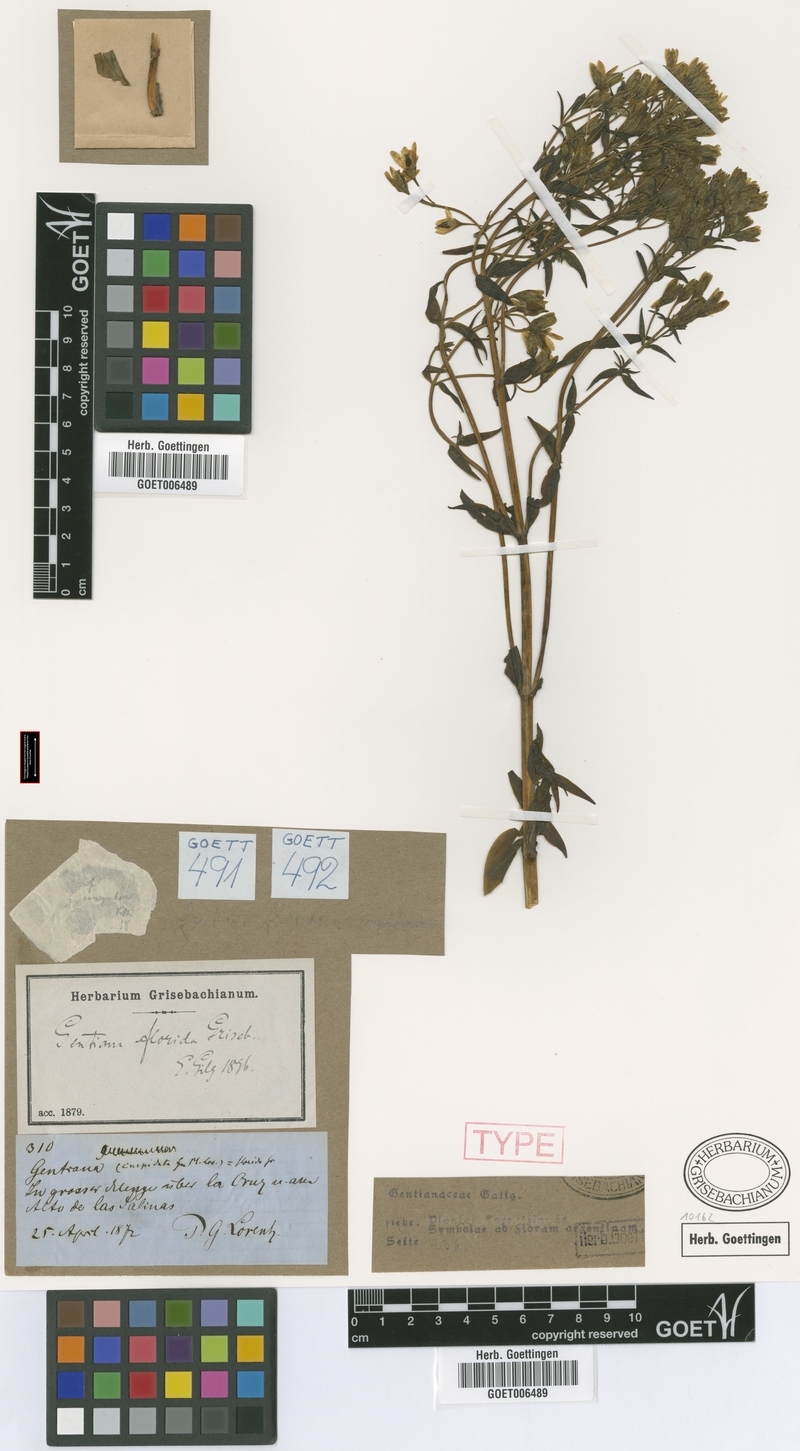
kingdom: Plantae
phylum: Tracheophyta
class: Magnoliopsida
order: Gentianales
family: Gentianaceae
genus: Gentianella
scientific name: Gentianella florida
